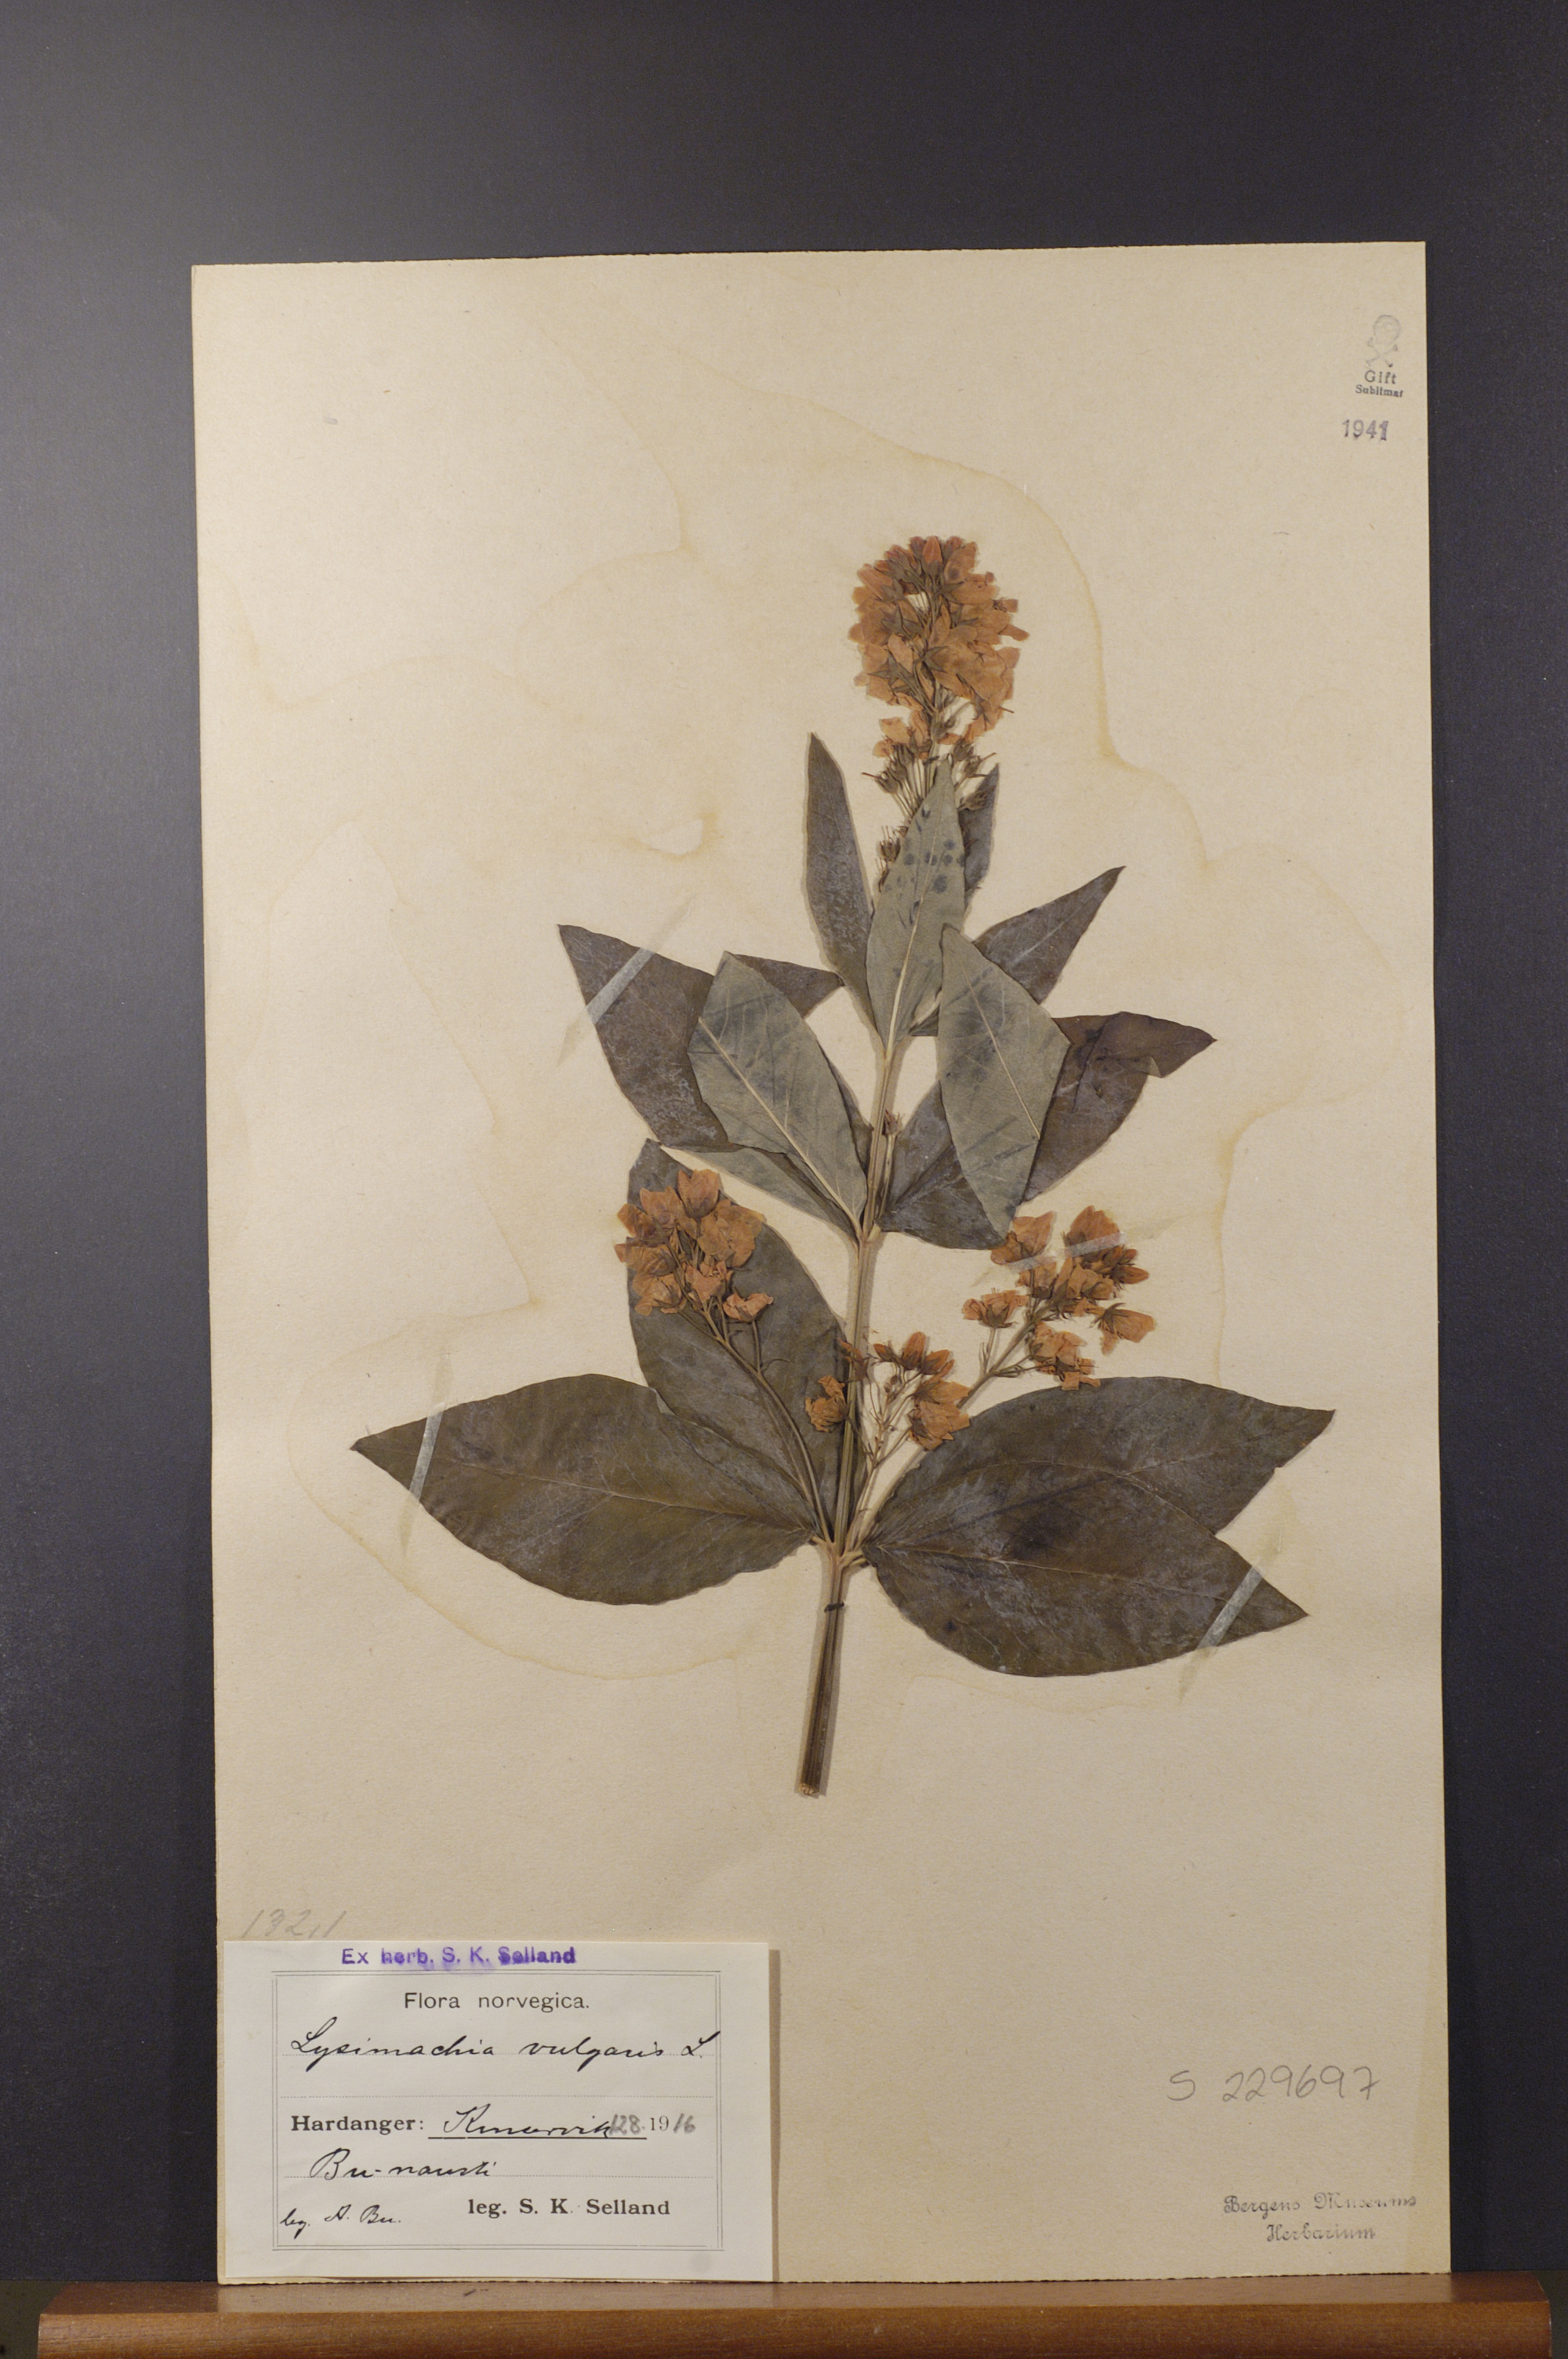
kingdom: Plantae
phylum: Tracheophyta
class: Magnoliopsida
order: Ericales
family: Primulaceae
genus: Lysimachia
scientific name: Lysimachia vulgaris
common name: Yellow loosestrife
